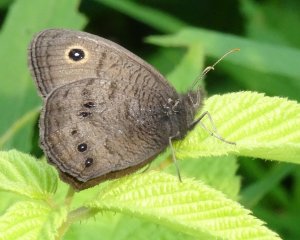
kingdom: Animalia
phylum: Arthropoda
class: Insecta
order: Lepidoptera
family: Nymphalidae
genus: Cercyonis
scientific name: Cercyonis pegala
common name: Common Wood-Nymph
